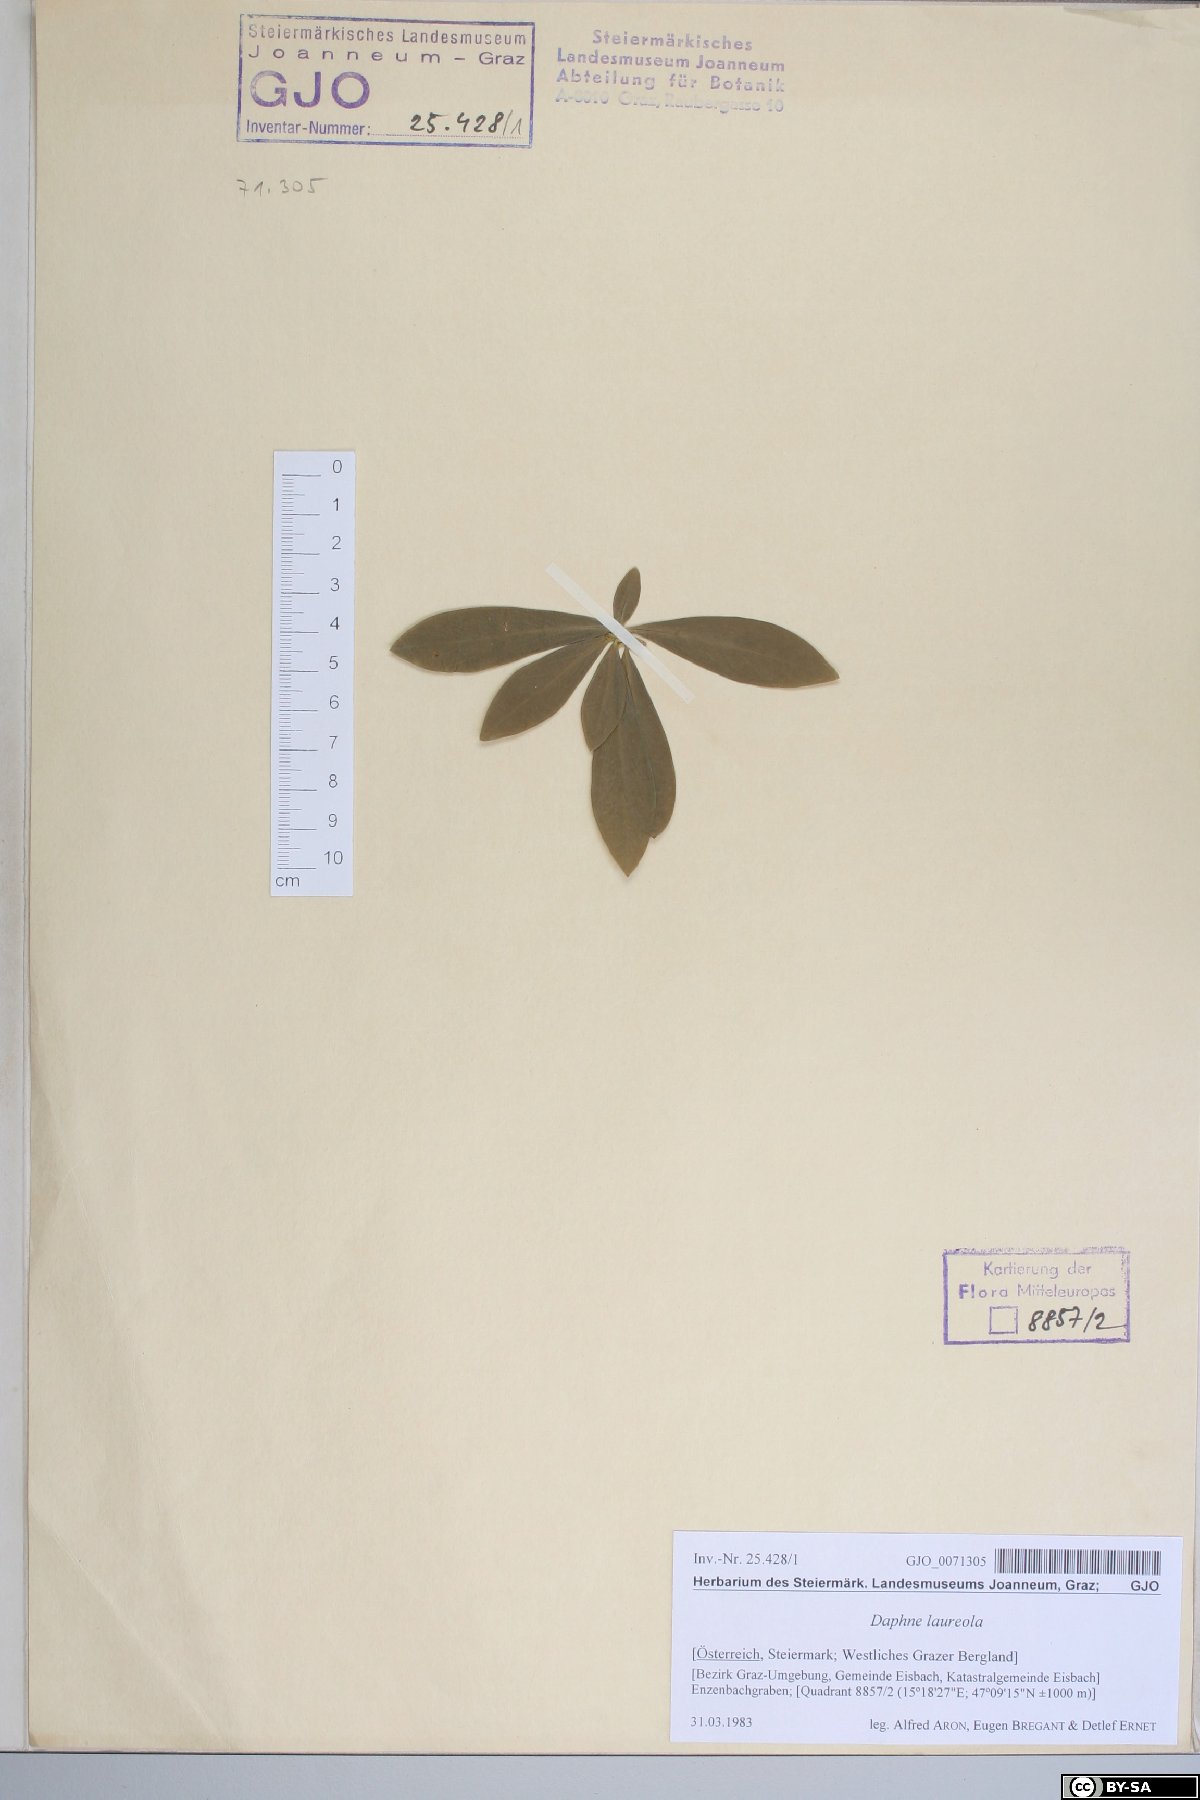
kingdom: Plantae
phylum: Tracheophyta
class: Magnoliopsida
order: Malvales
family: Thymelaeaceae
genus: Daphne
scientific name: Daphne laureola
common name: Spurge-laurel
